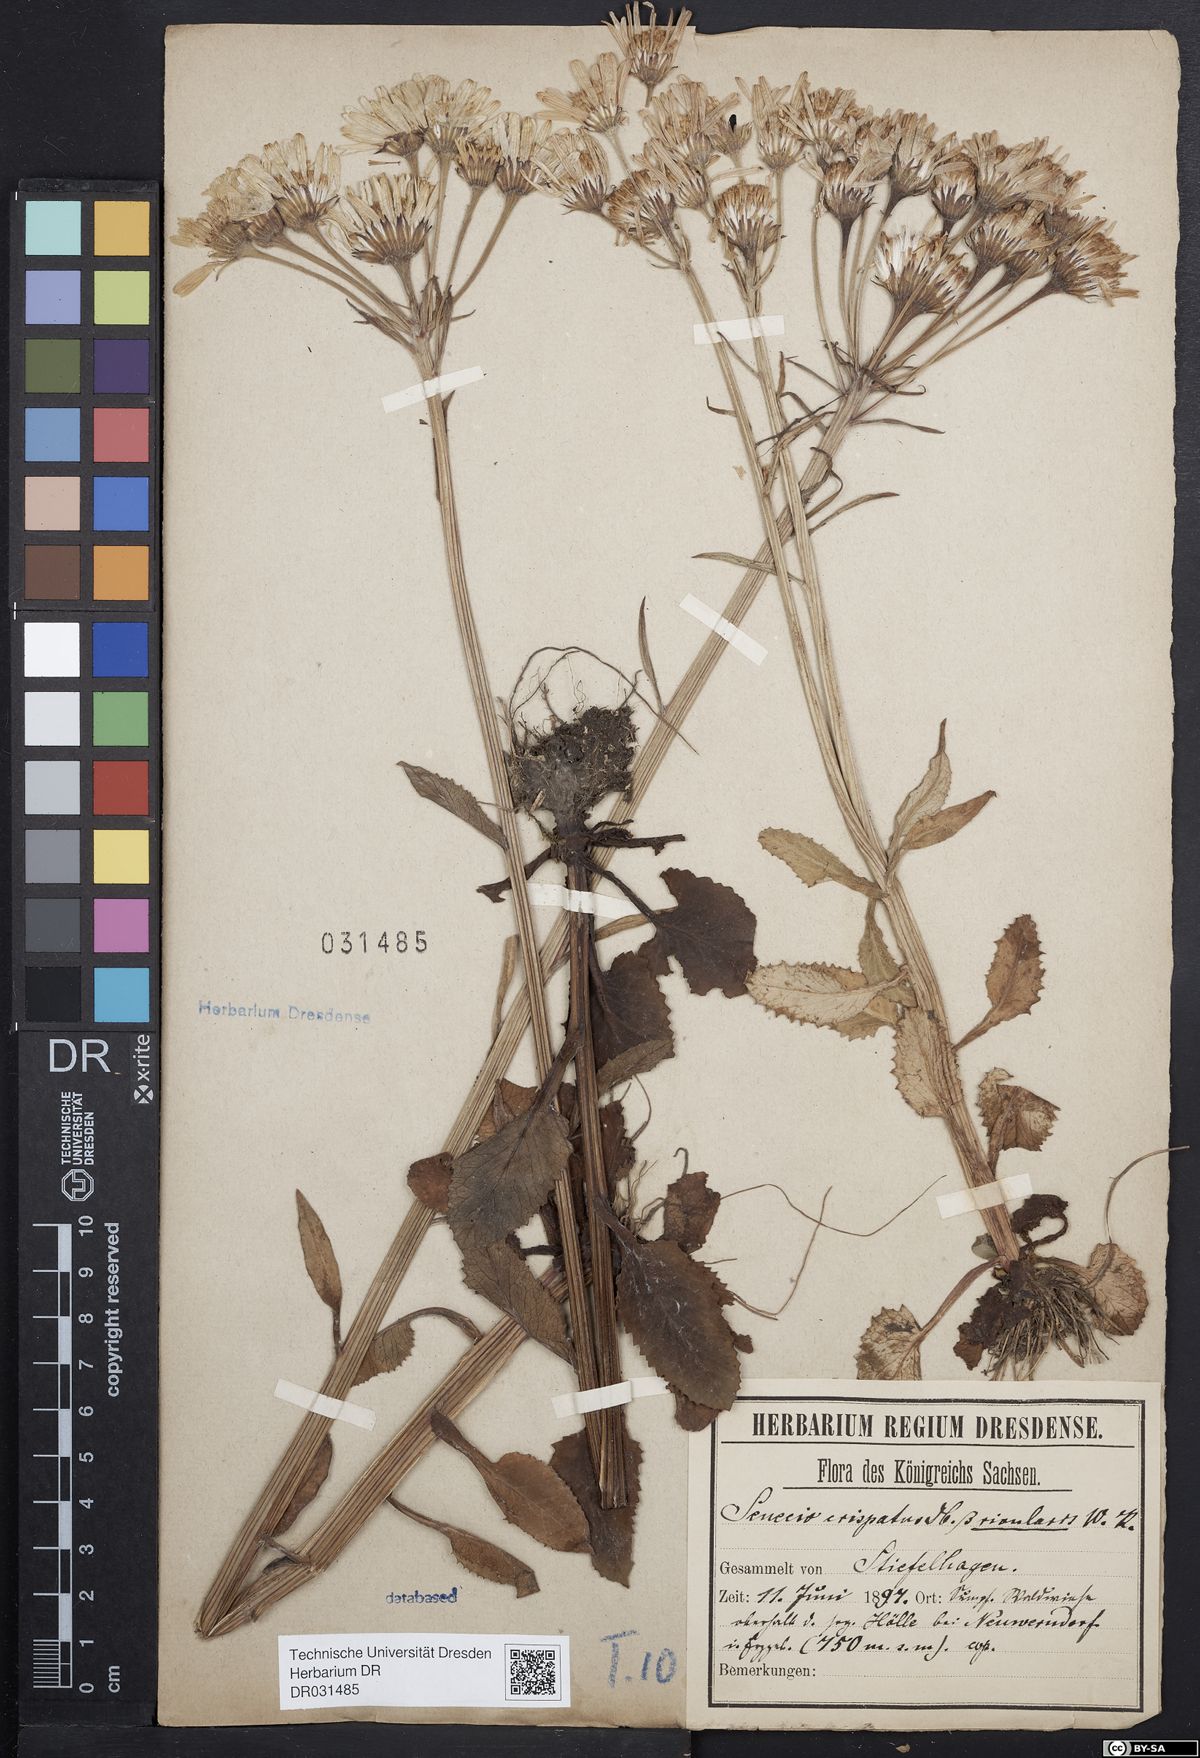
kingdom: Plantae
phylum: Tracheophyta
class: Magnoliopsida
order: Asterales
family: Asteraceae
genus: Tephroseris
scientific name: Tephroseris crispa
